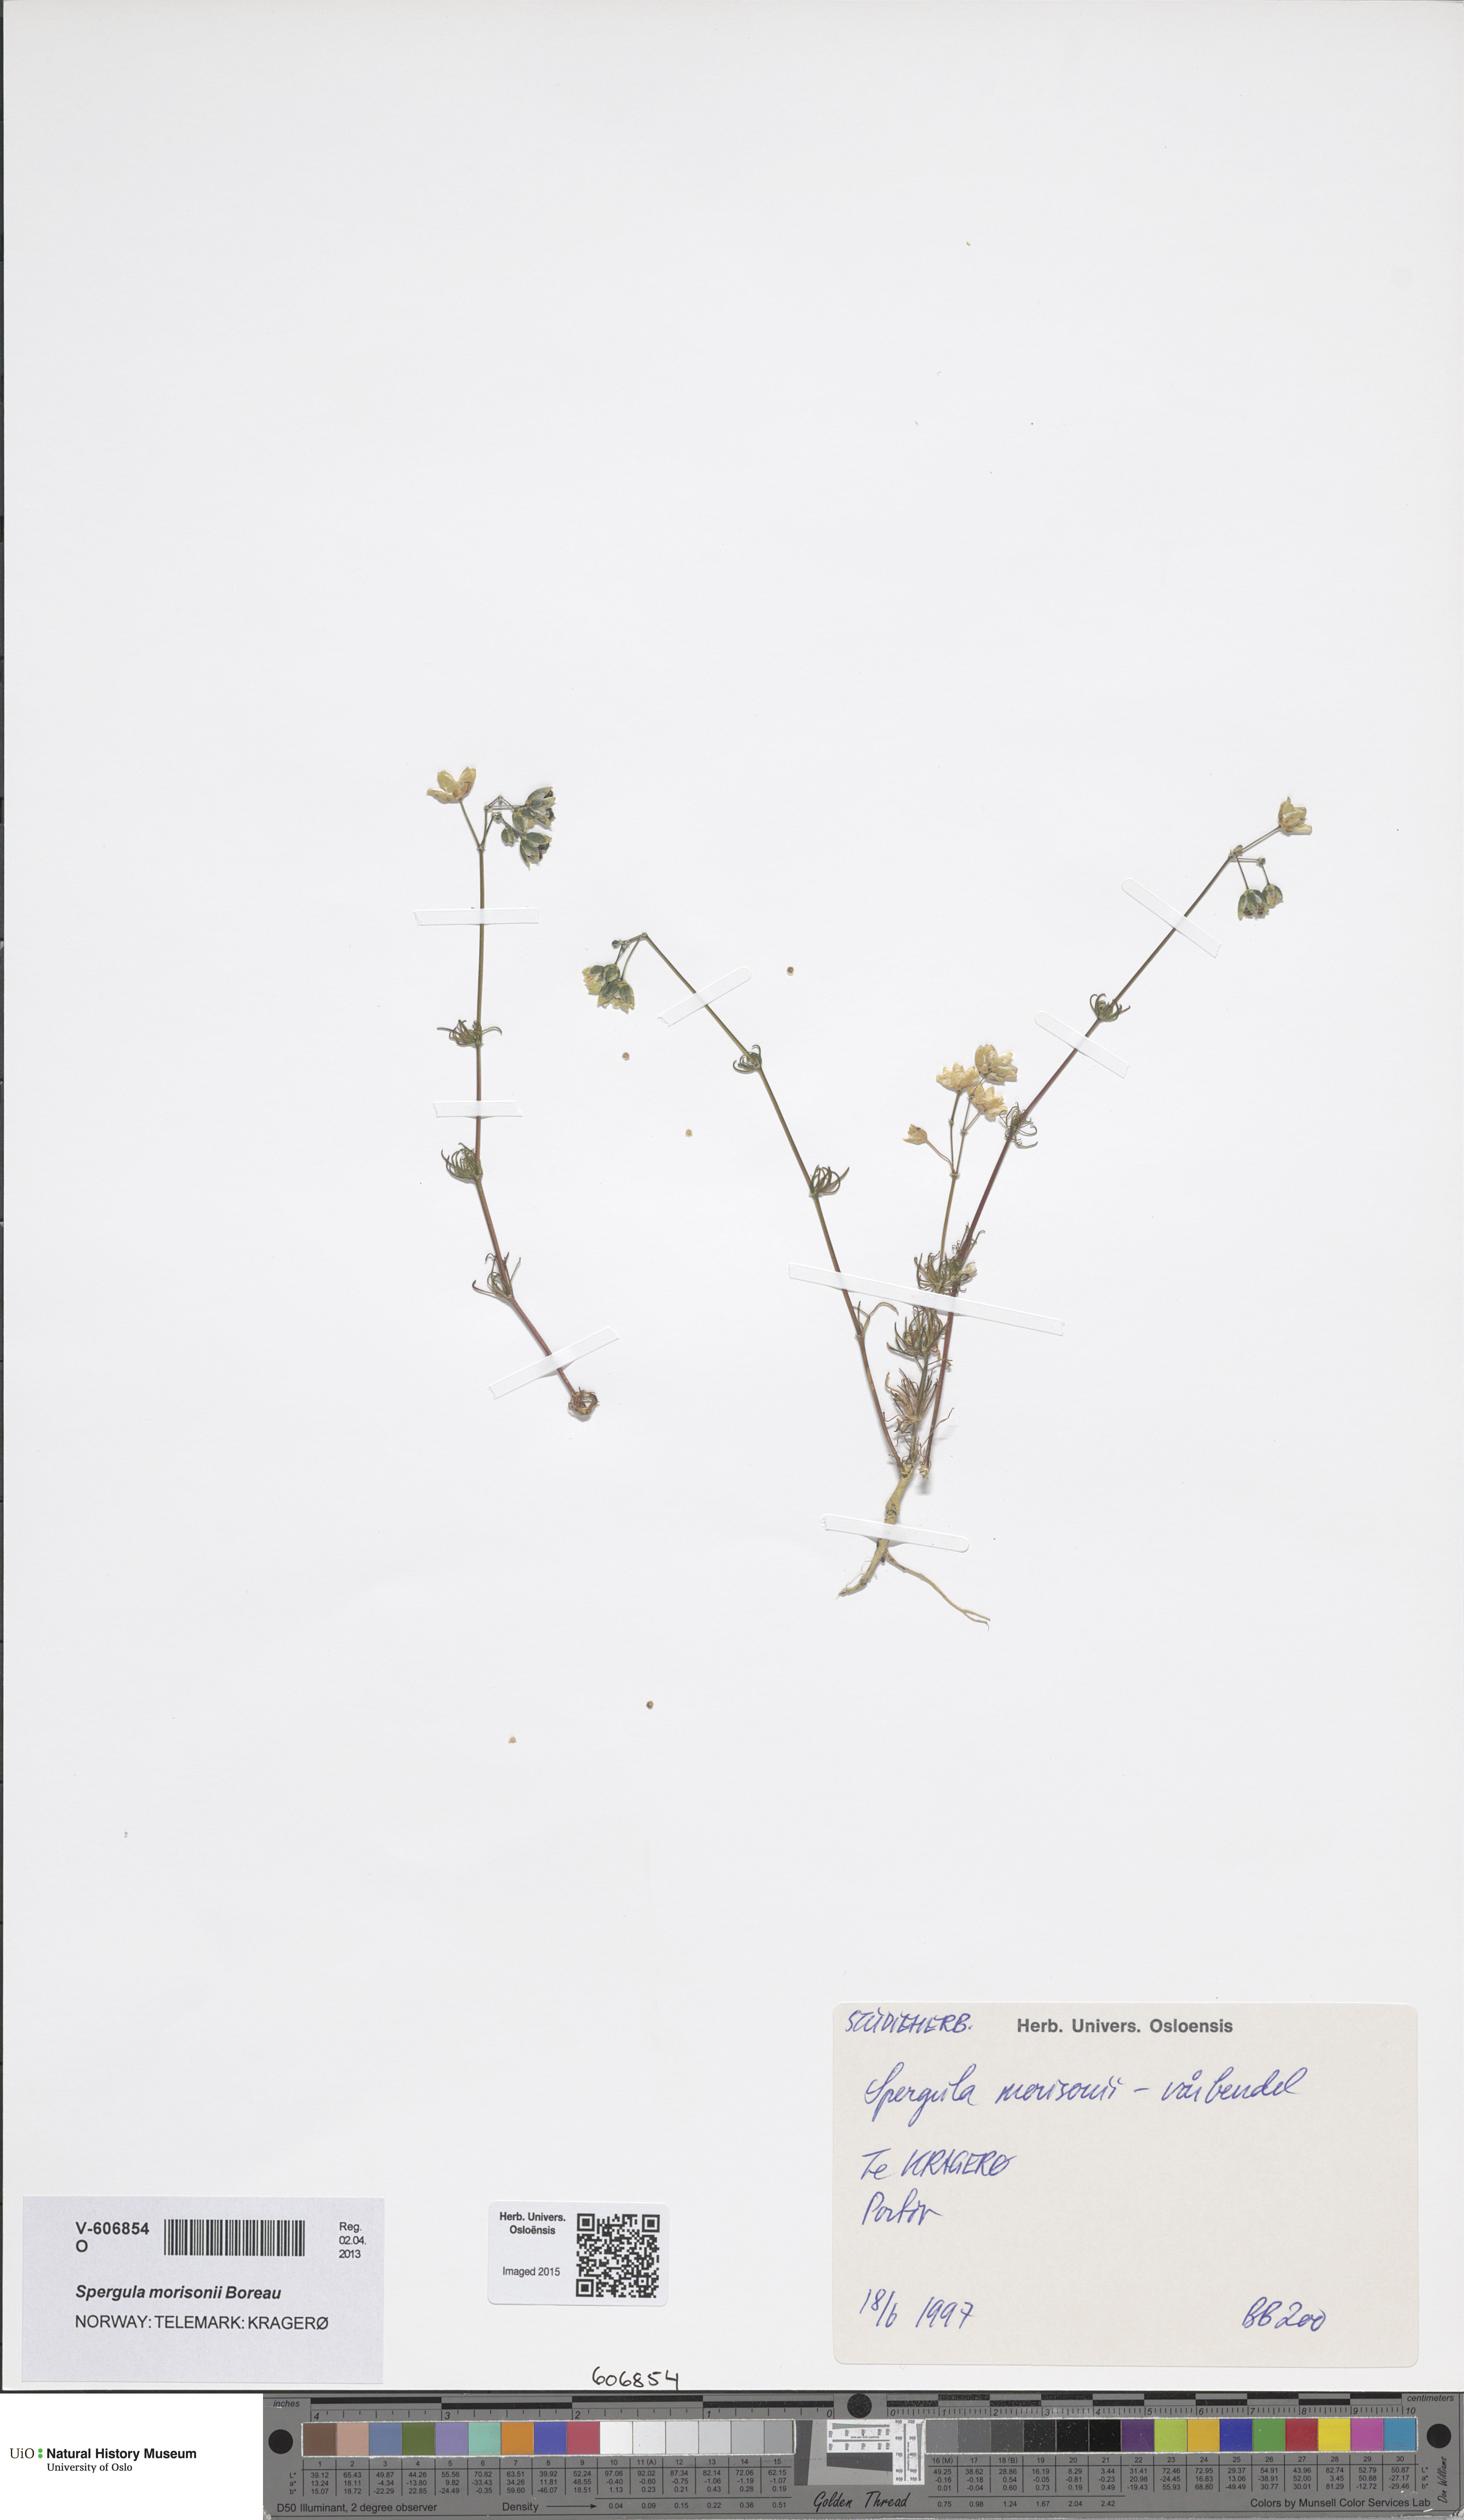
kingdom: Plantae
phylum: Tracheophyta
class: Magnoliopsida
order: Caryophyllales
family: Caryophyllaceae
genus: Spergula
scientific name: Spergula morisonii
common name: Pearlwort spurrey
